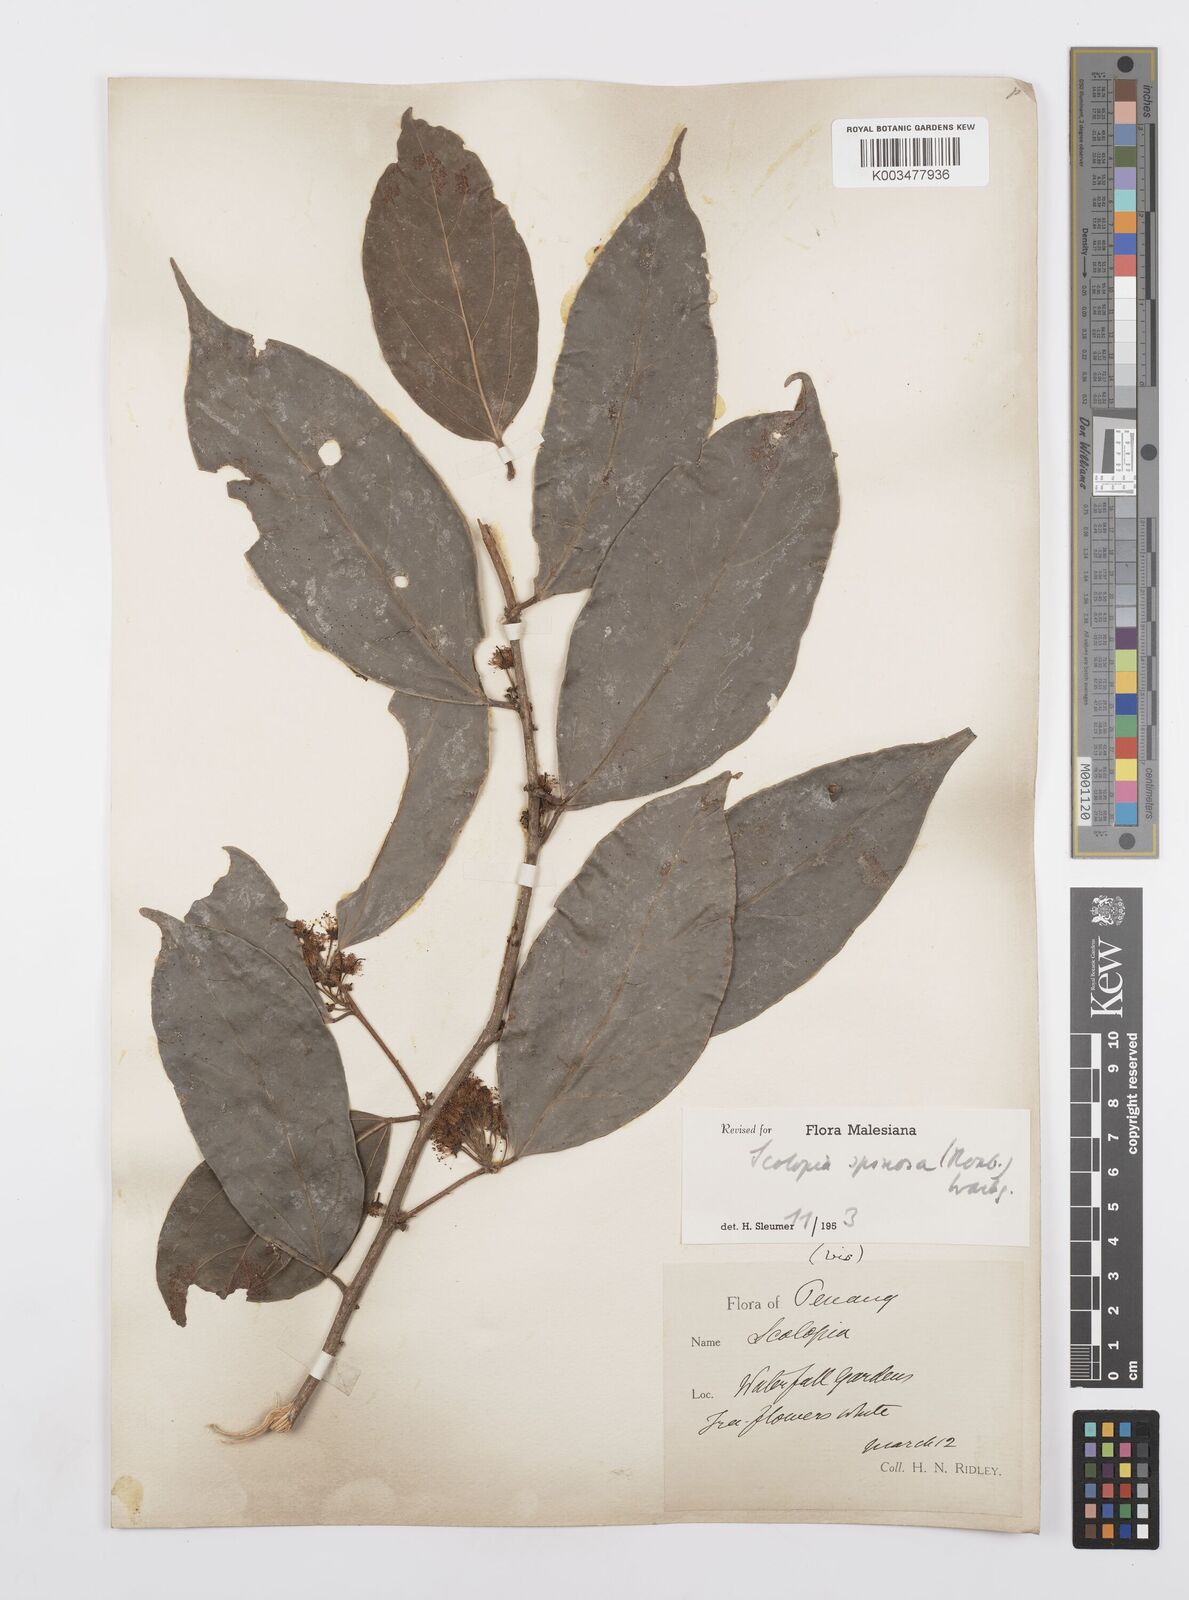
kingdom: Plantae
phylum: Tracheophyta
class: Magnoliopsida
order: Malpighiales
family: Salicaceae
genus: Scolopia
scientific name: Scolopia spinosa
